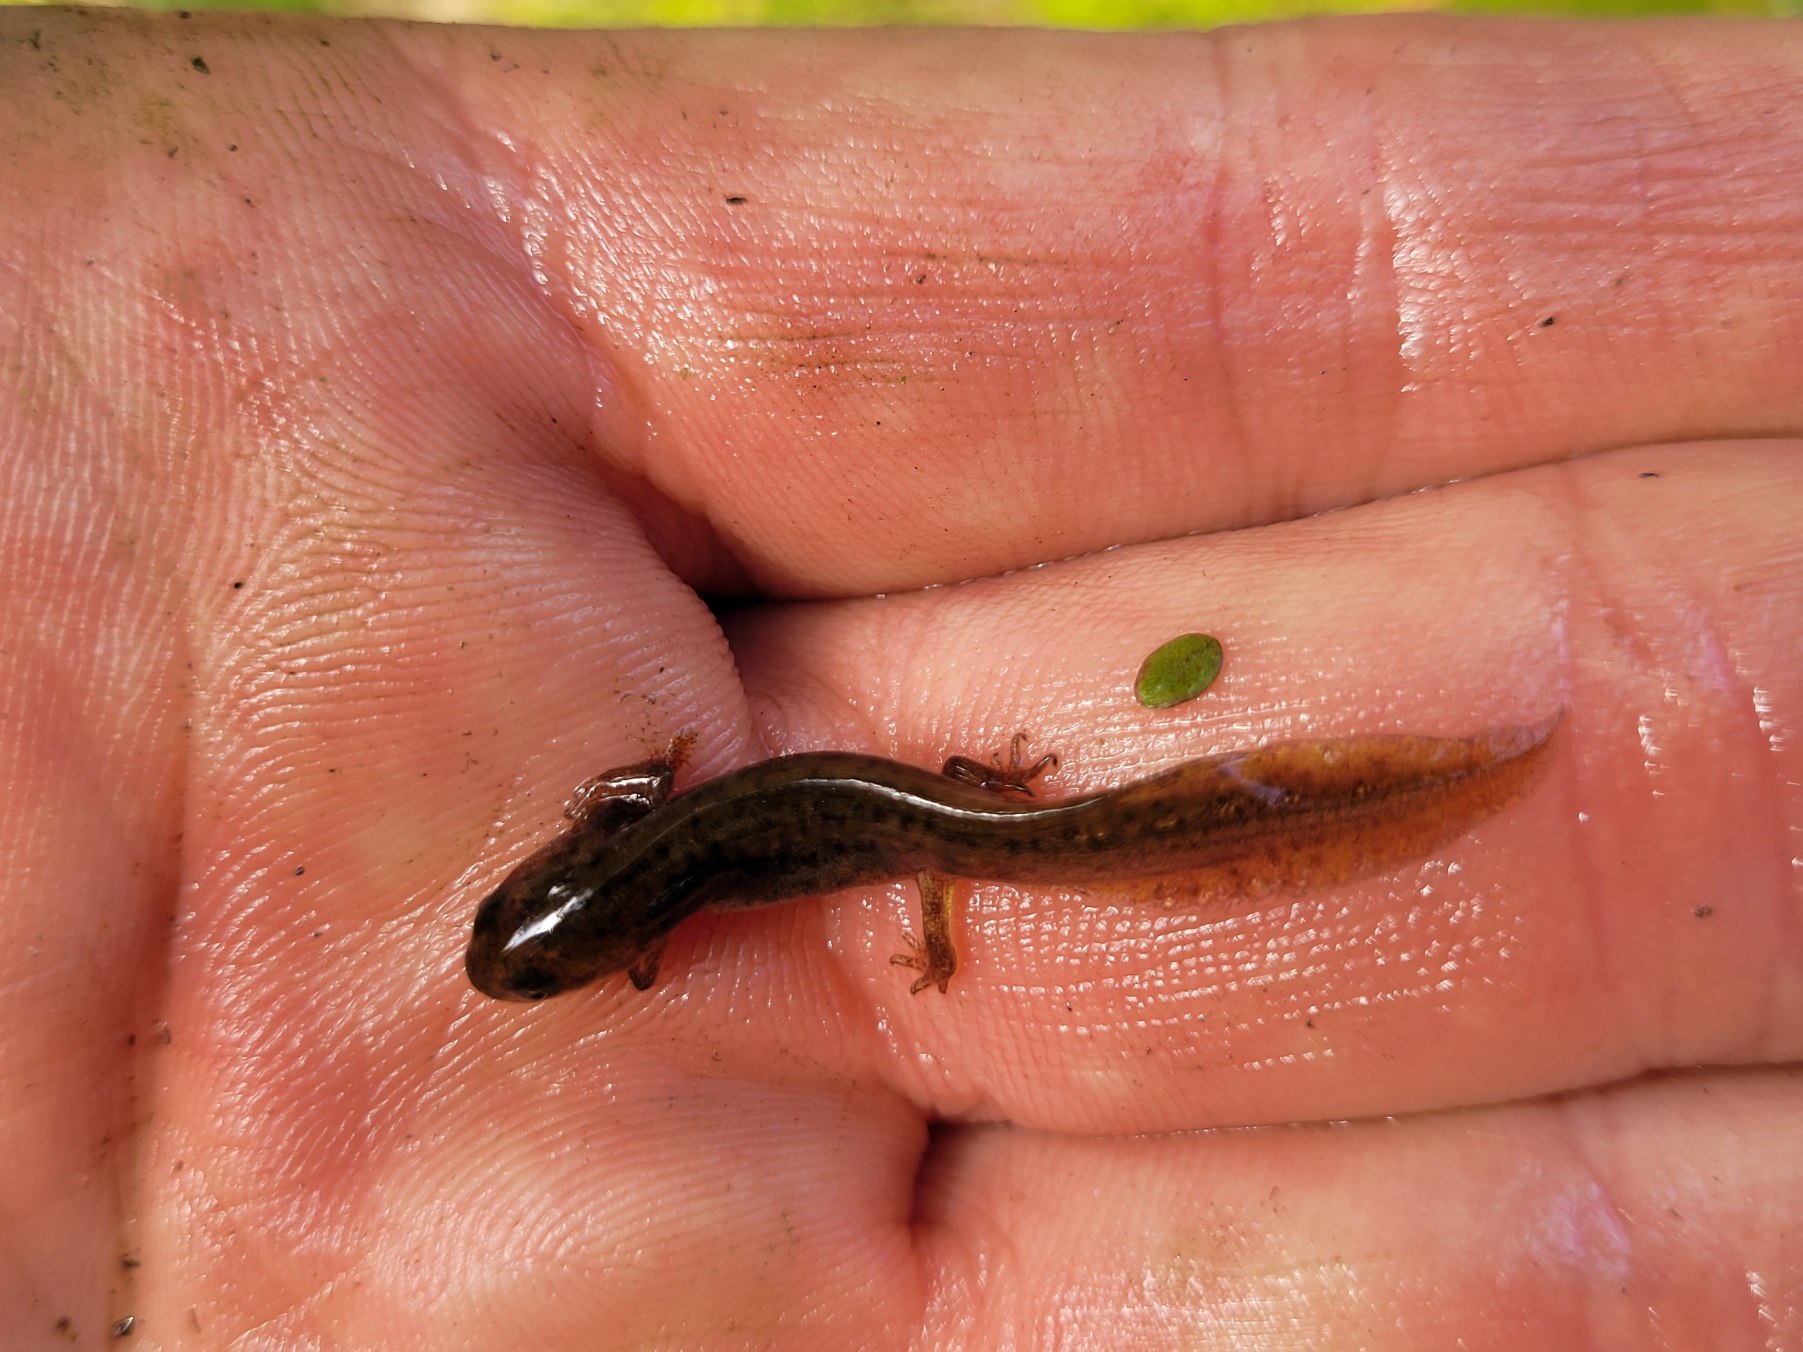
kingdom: Animalia
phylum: Chordata
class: Amphibia
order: Caudata
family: Salamandridae
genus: Lissotriton
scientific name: Lissotriton vulgaris
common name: Lille vandsalamander
